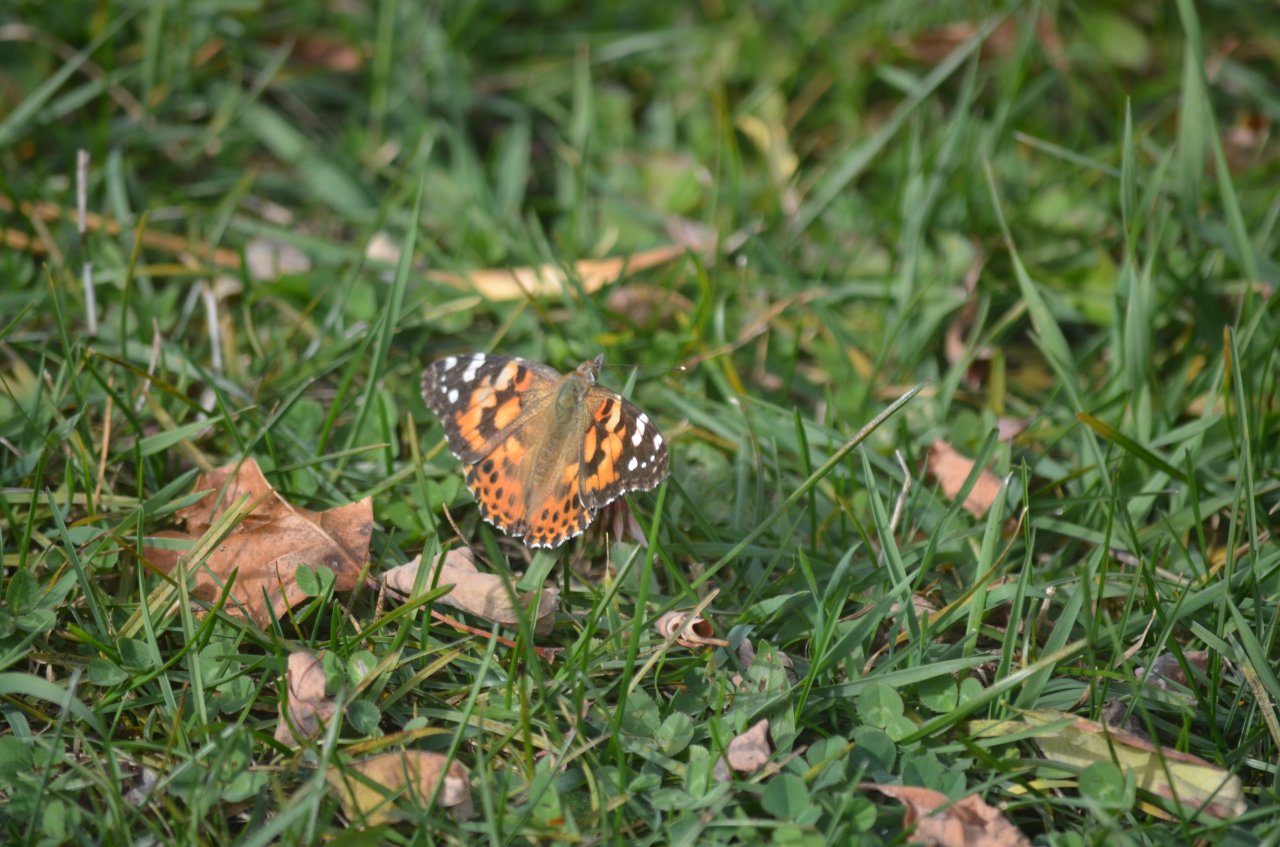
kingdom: Animalia
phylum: Arthropoda
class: Insecta
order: Lepidoptera
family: Nymphalidae
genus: Vanessa
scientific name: Vanessa cardui
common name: Painted Lady
